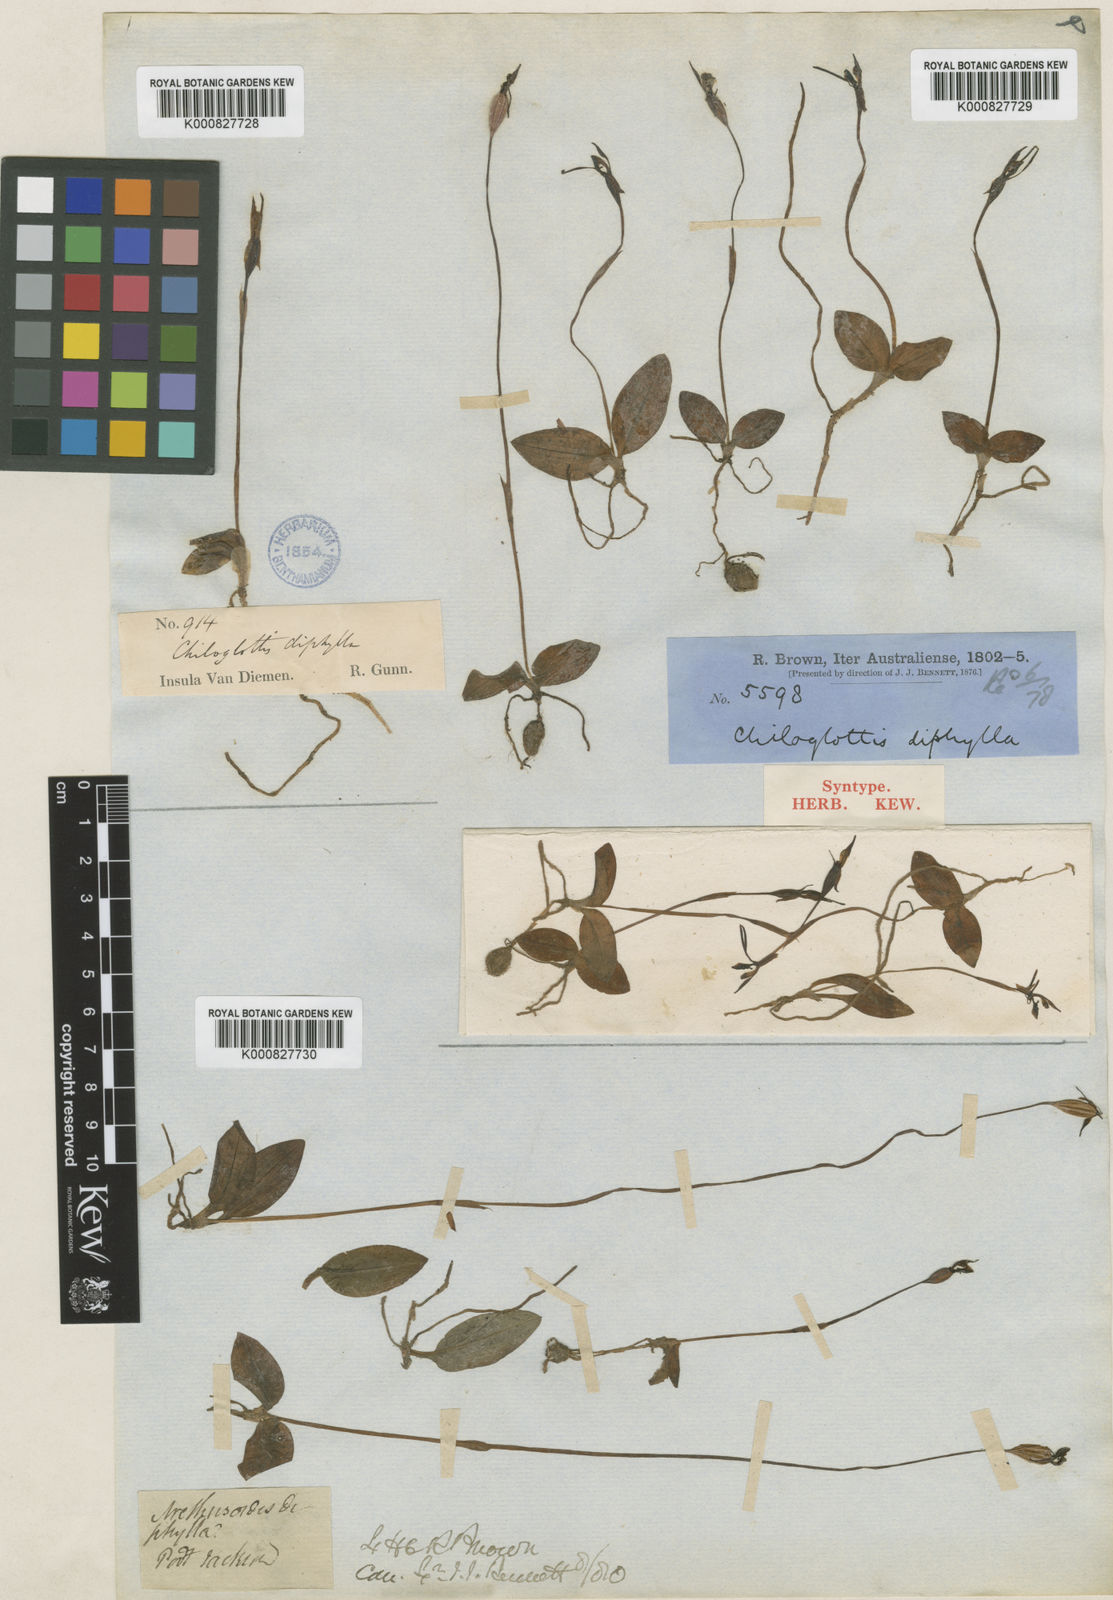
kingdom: Plantae
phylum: Tracheophyta
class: Liliopsida
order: Asparagales
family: Orchidaceae
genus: Chiloglottis
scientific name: Chiloglottis reflexa
